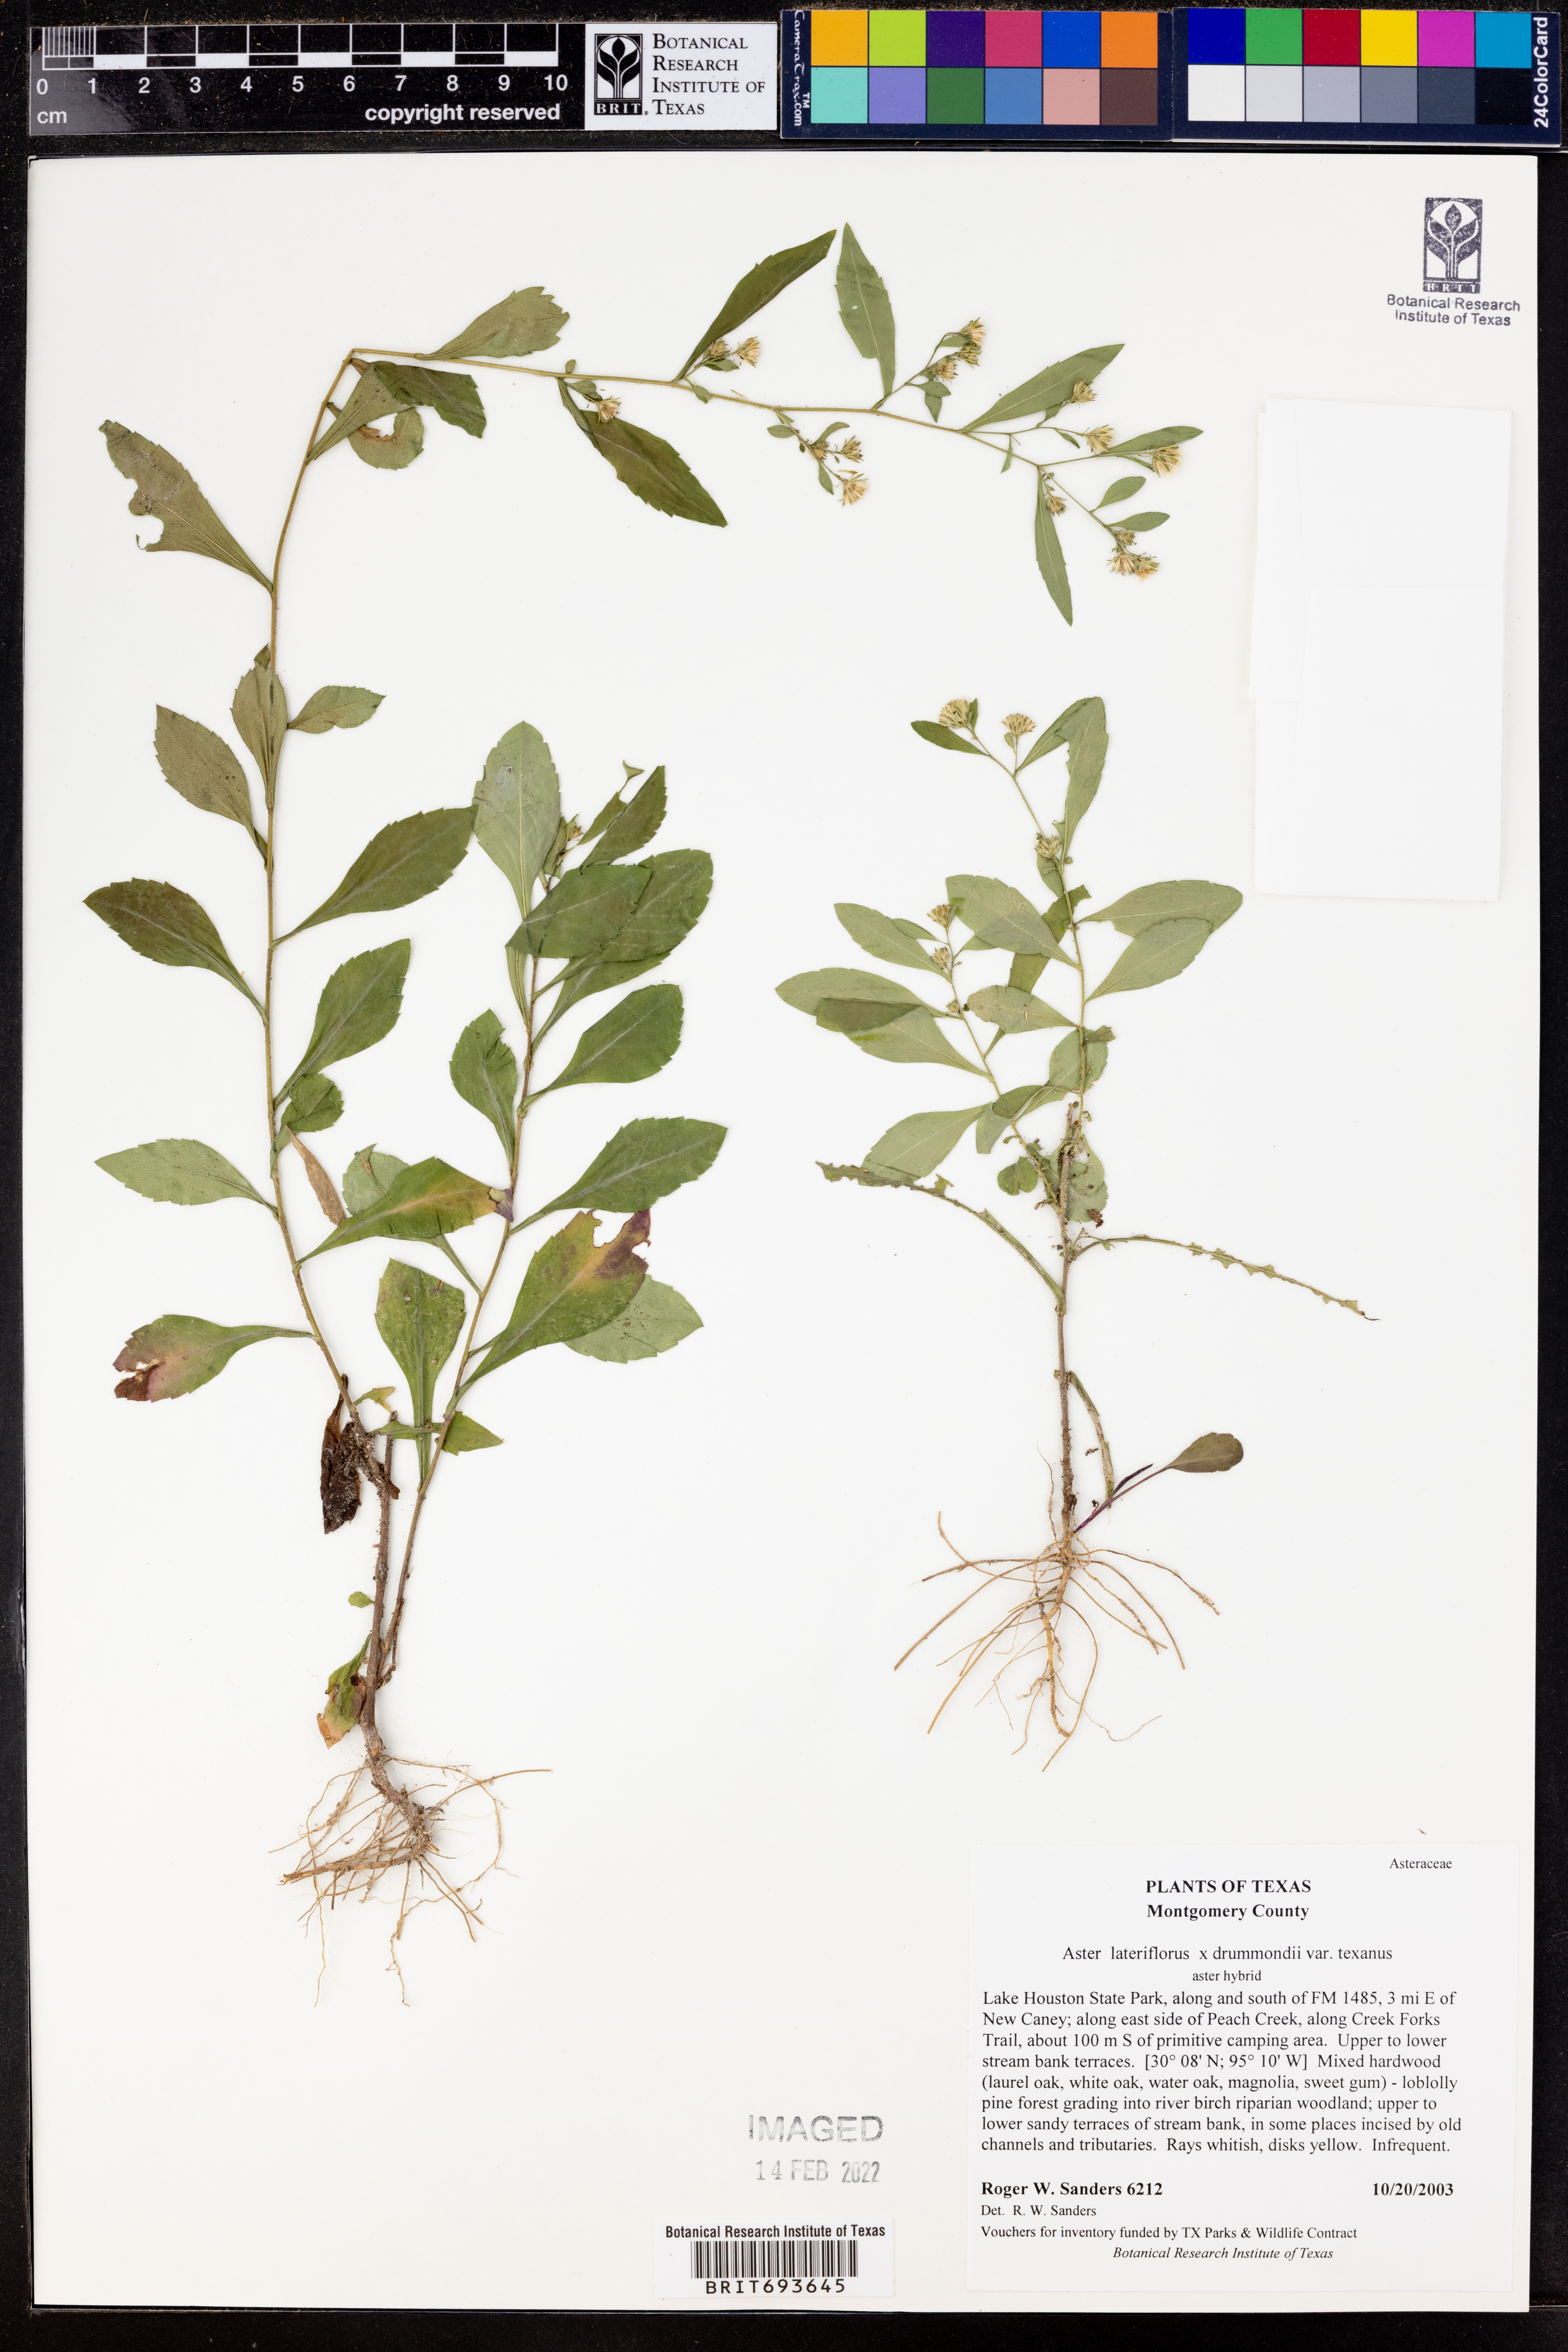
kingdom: Plantae
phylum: Tracheophyta
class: Magnoliopsida
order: Asterales
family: Asteraceae
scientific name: Asteraceae
